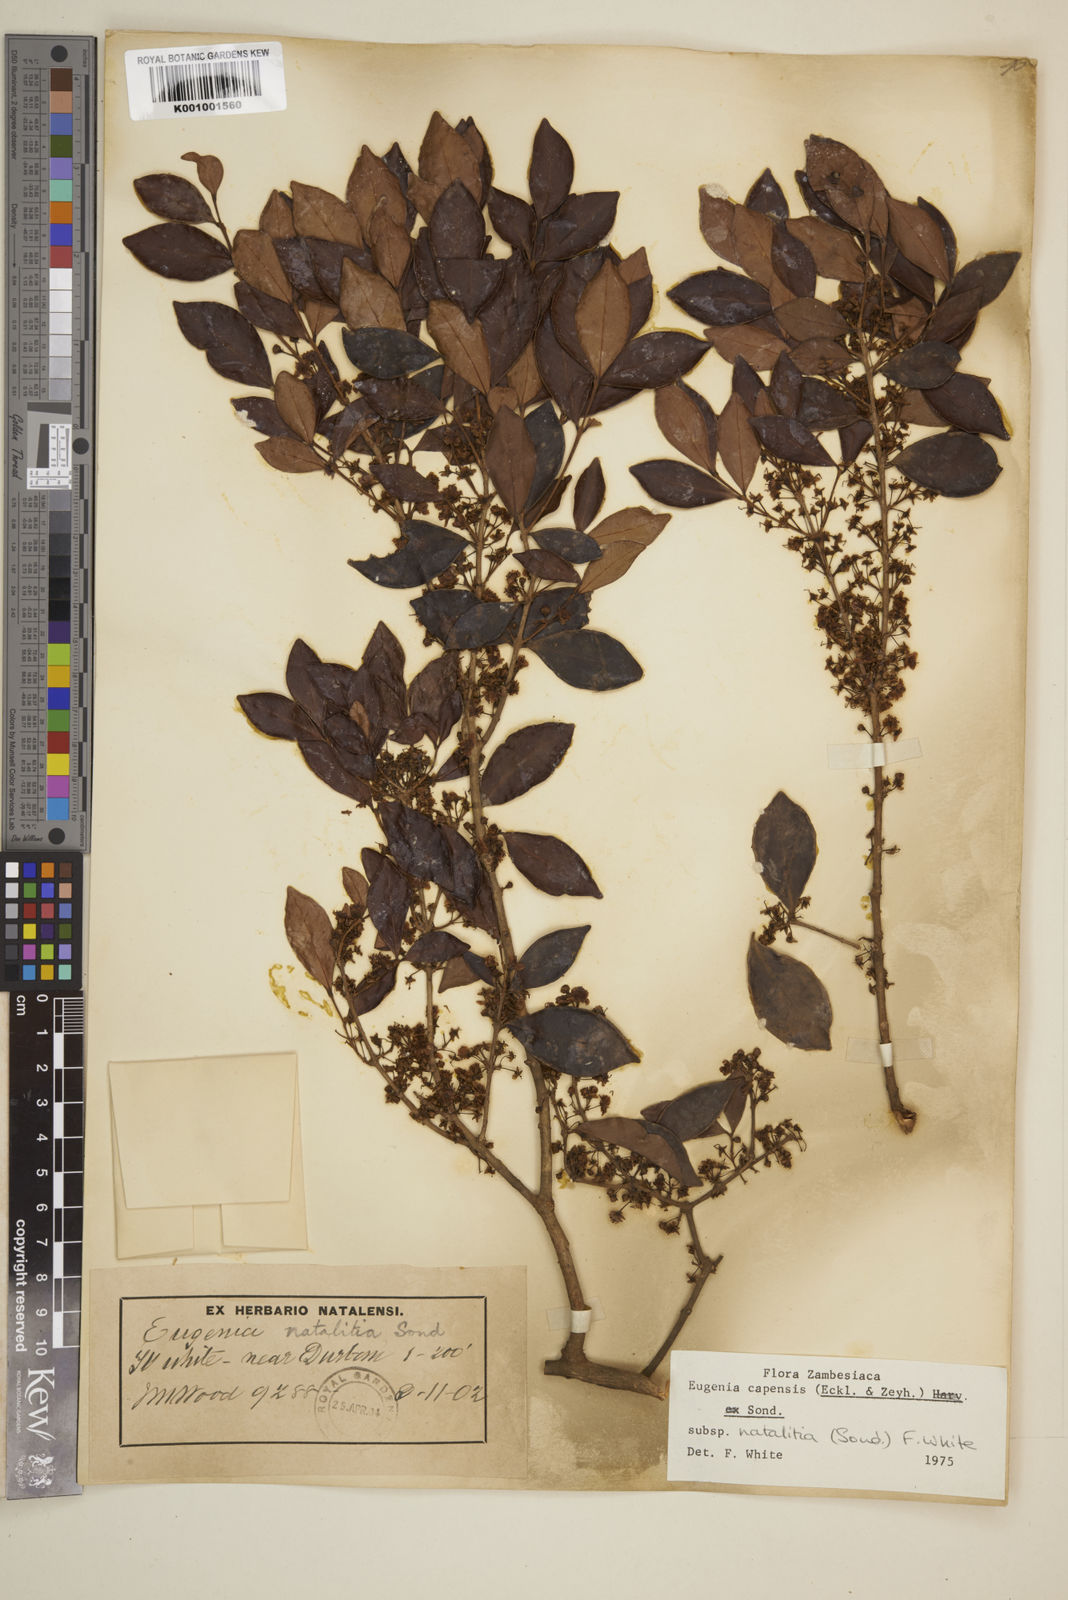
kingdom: Plantae
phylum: Tracheophyta
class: Magnoliopsida
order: Myrtales
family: Myrtaceae
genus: Eugenia
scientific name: Eugenia natalitia
